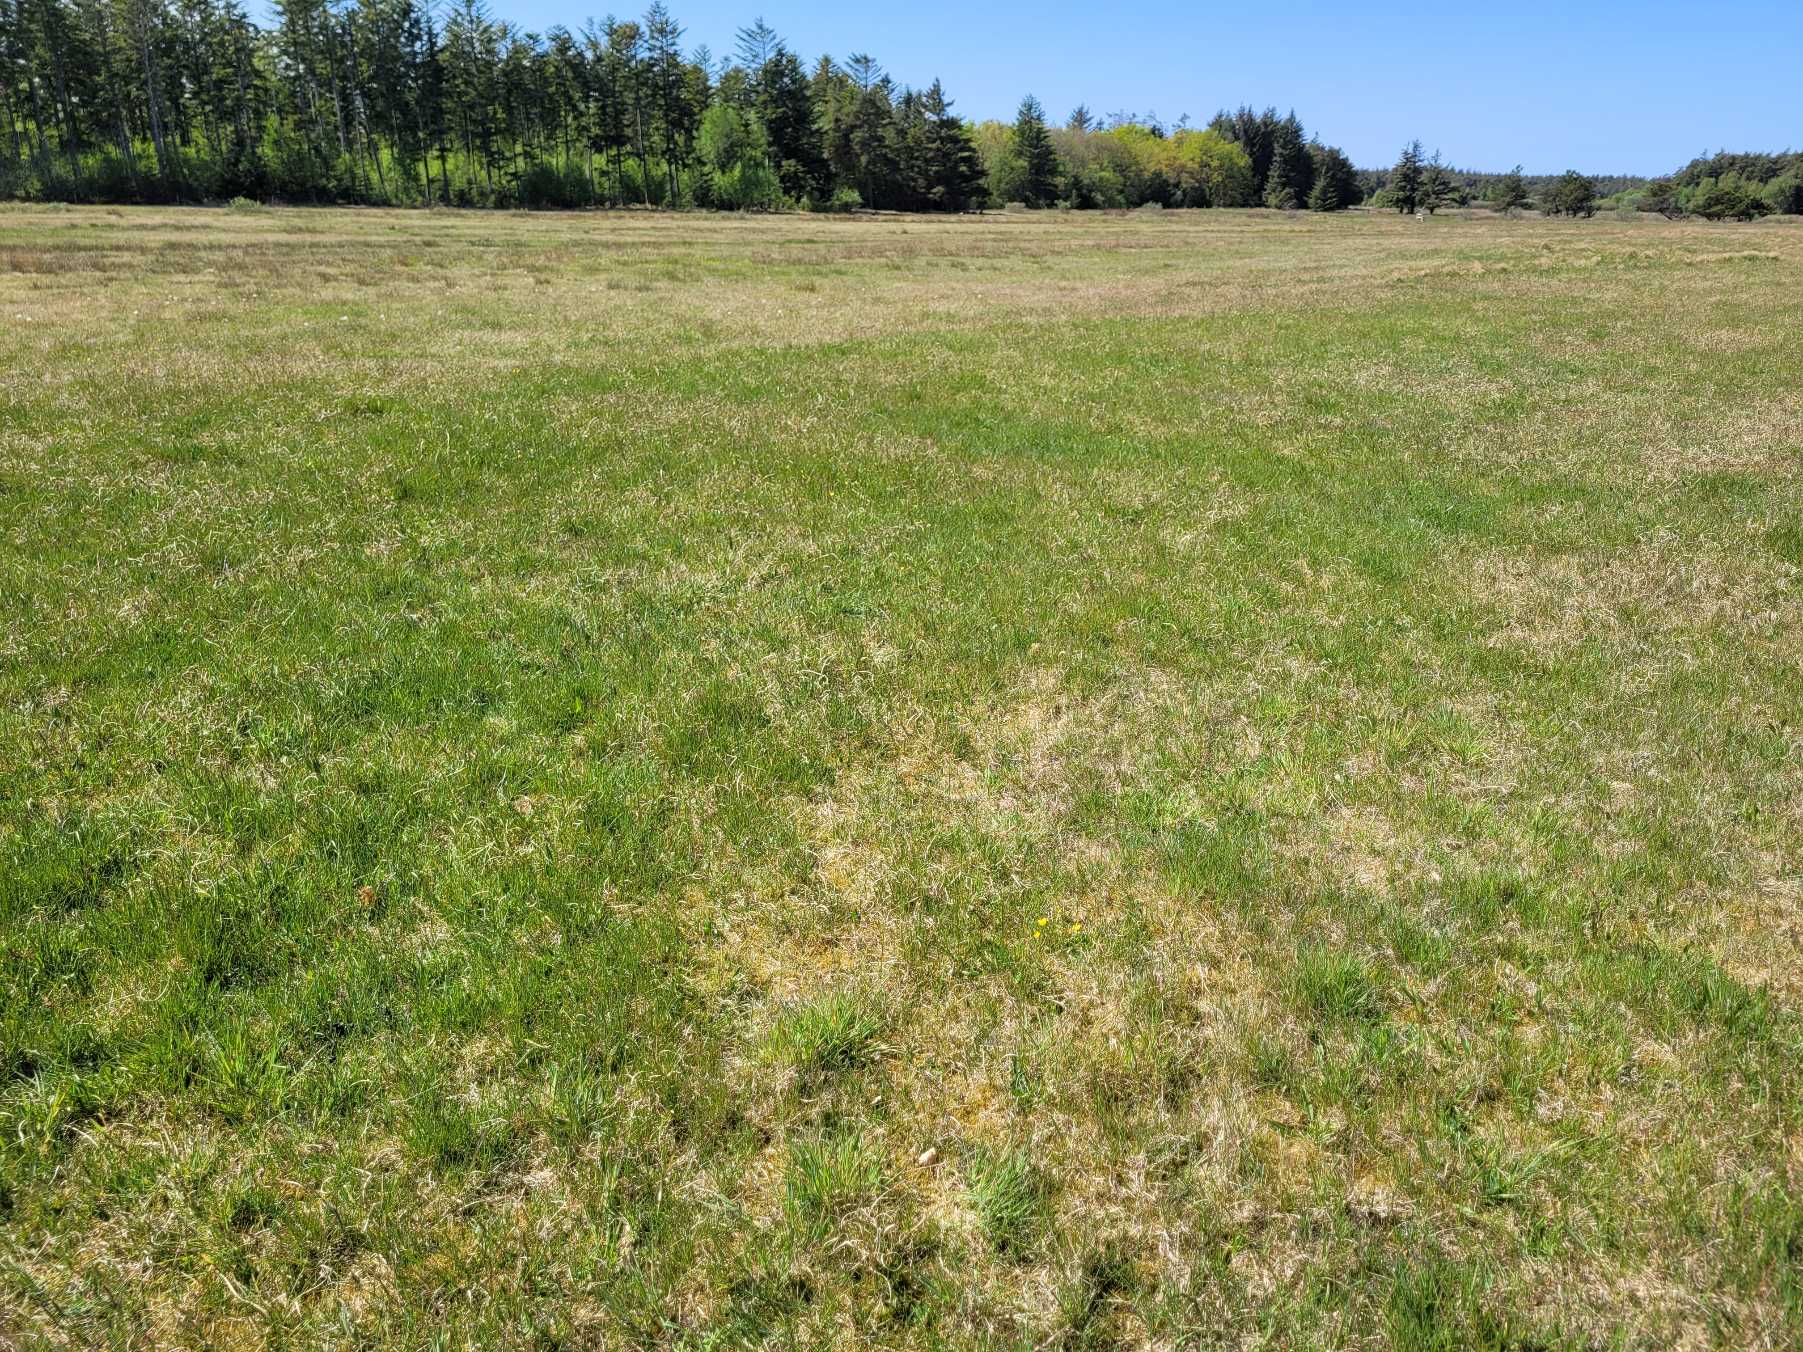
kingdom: Animalia
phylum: Arthropoda
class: Insecta
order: Lepidoptera
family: Nymphalidae
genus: Euphydryas
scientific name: Euphydryas aurinia
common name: Hedepletvinge
